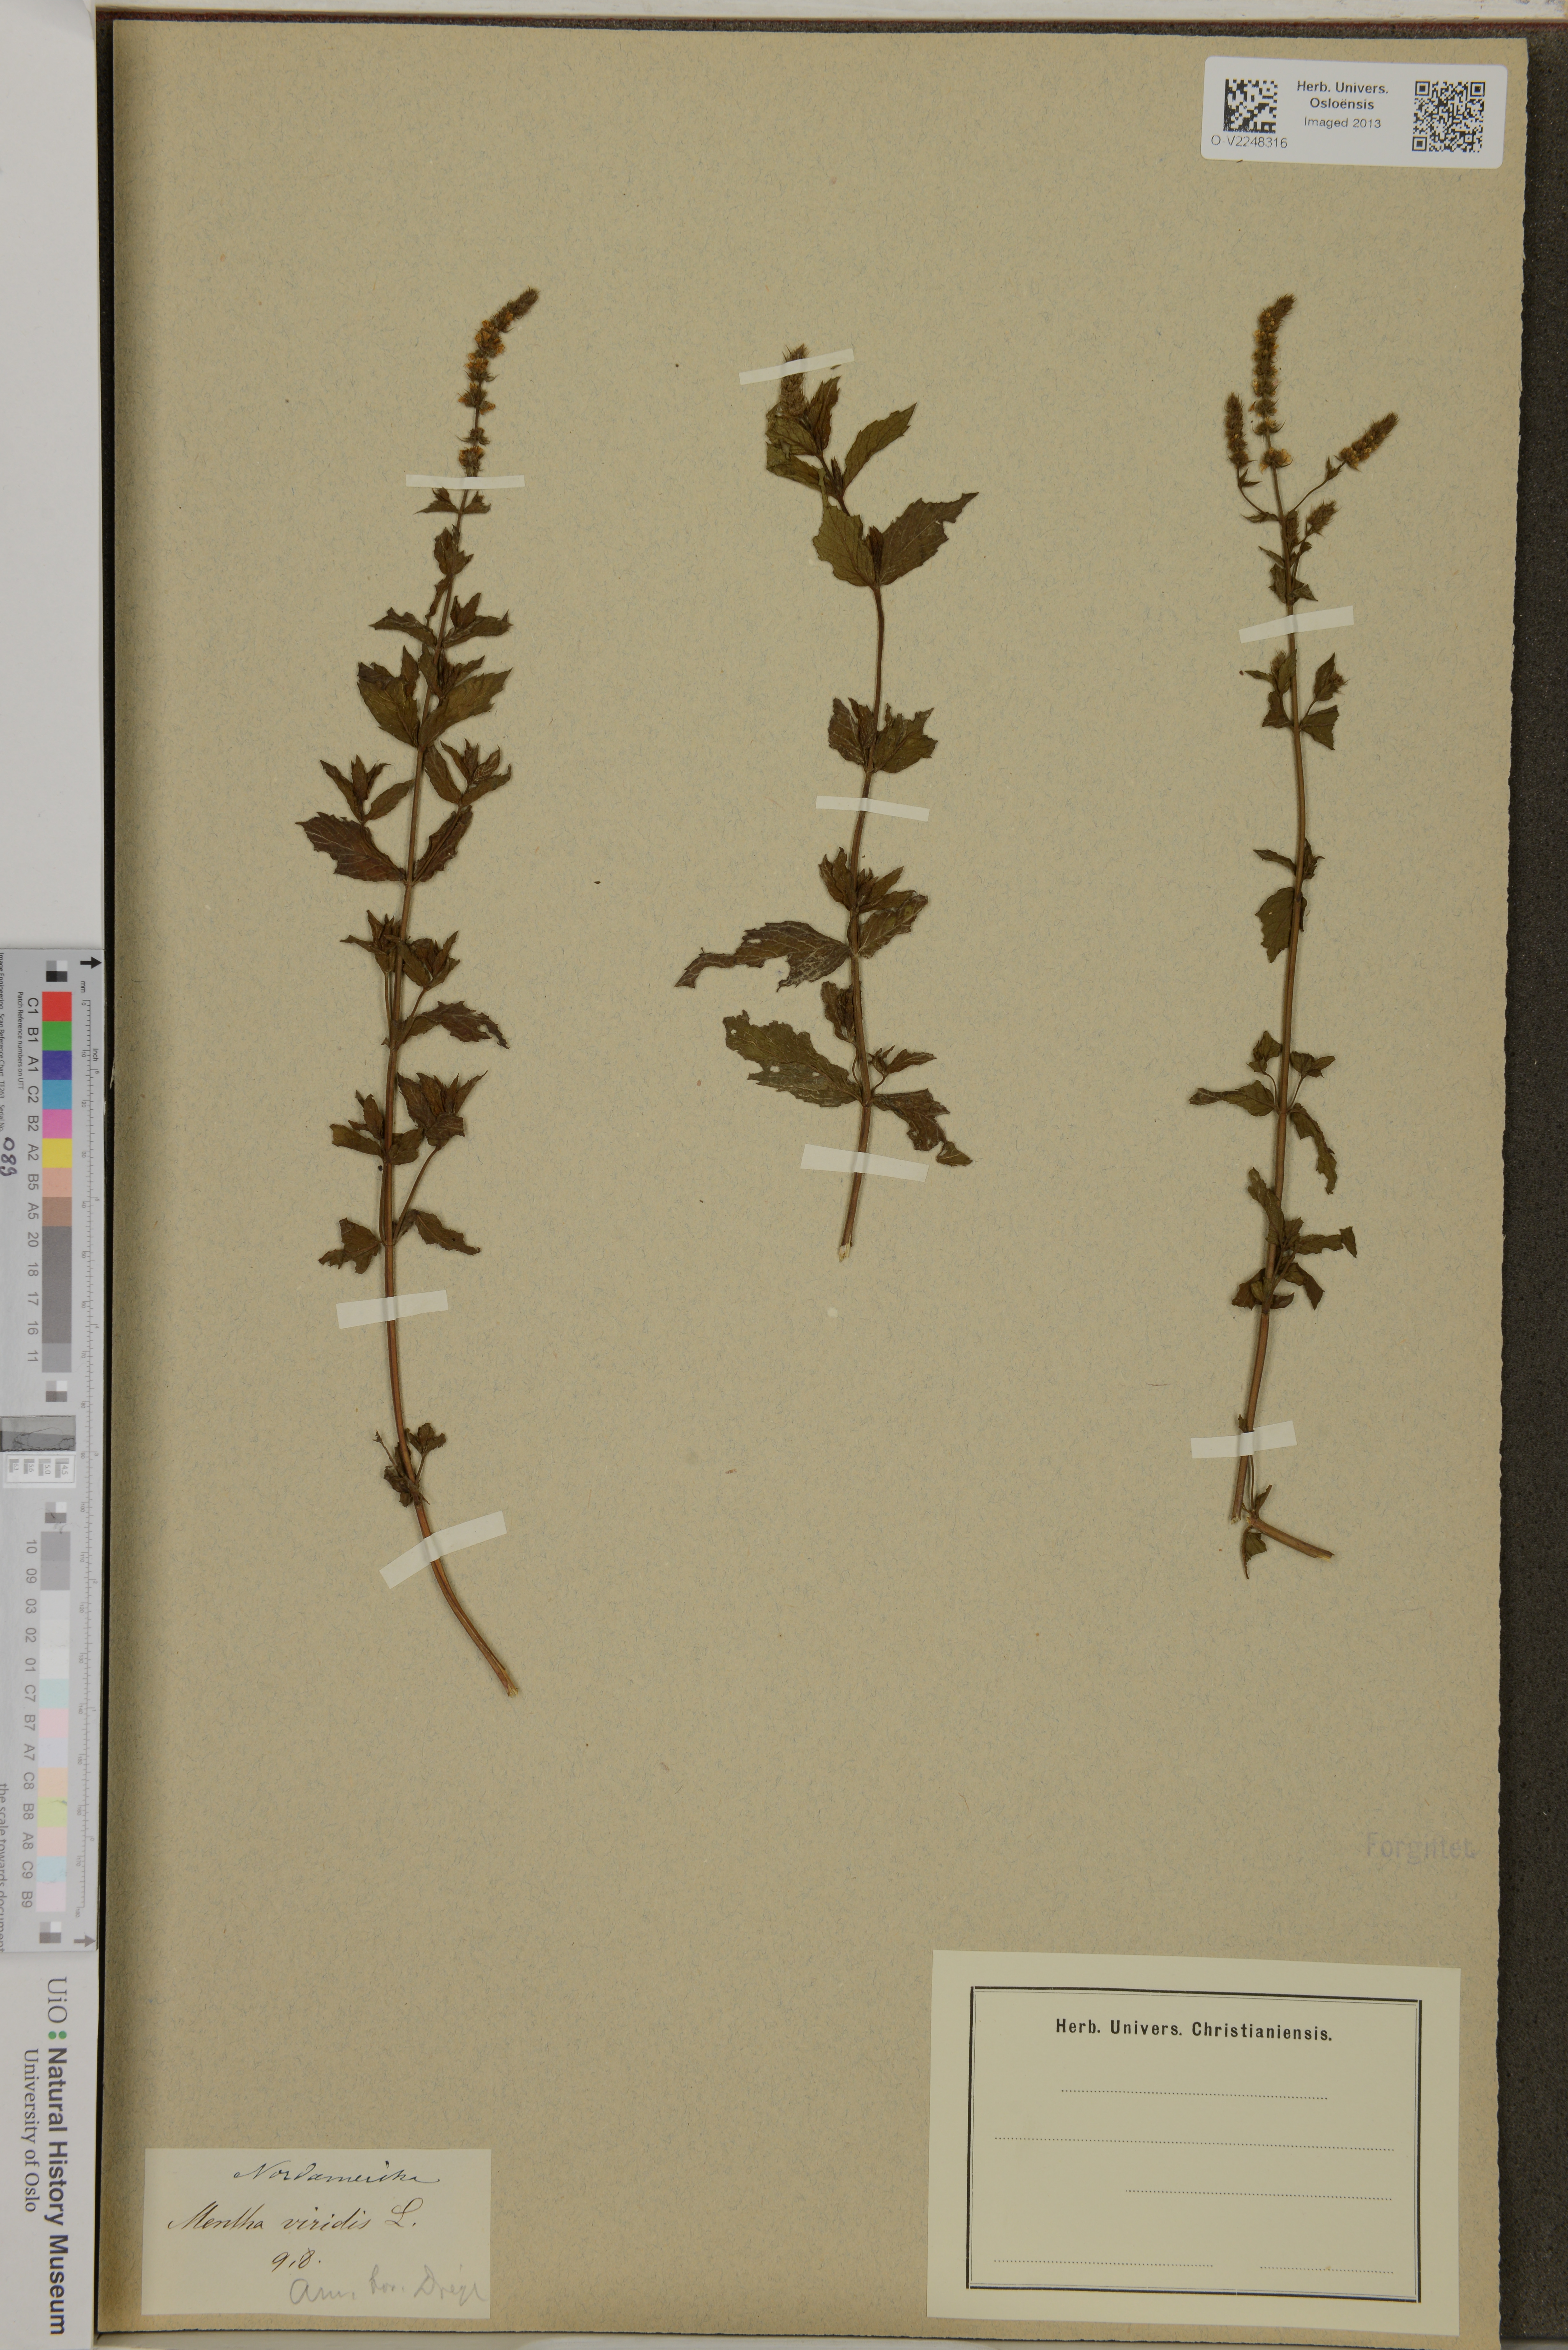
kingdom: Plantae
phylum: Tracheophyta
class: Magnoliopsida
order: Lamiales
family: Lamiaceae
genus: Mentha
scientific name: Mentha spicata
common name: Spearmint
